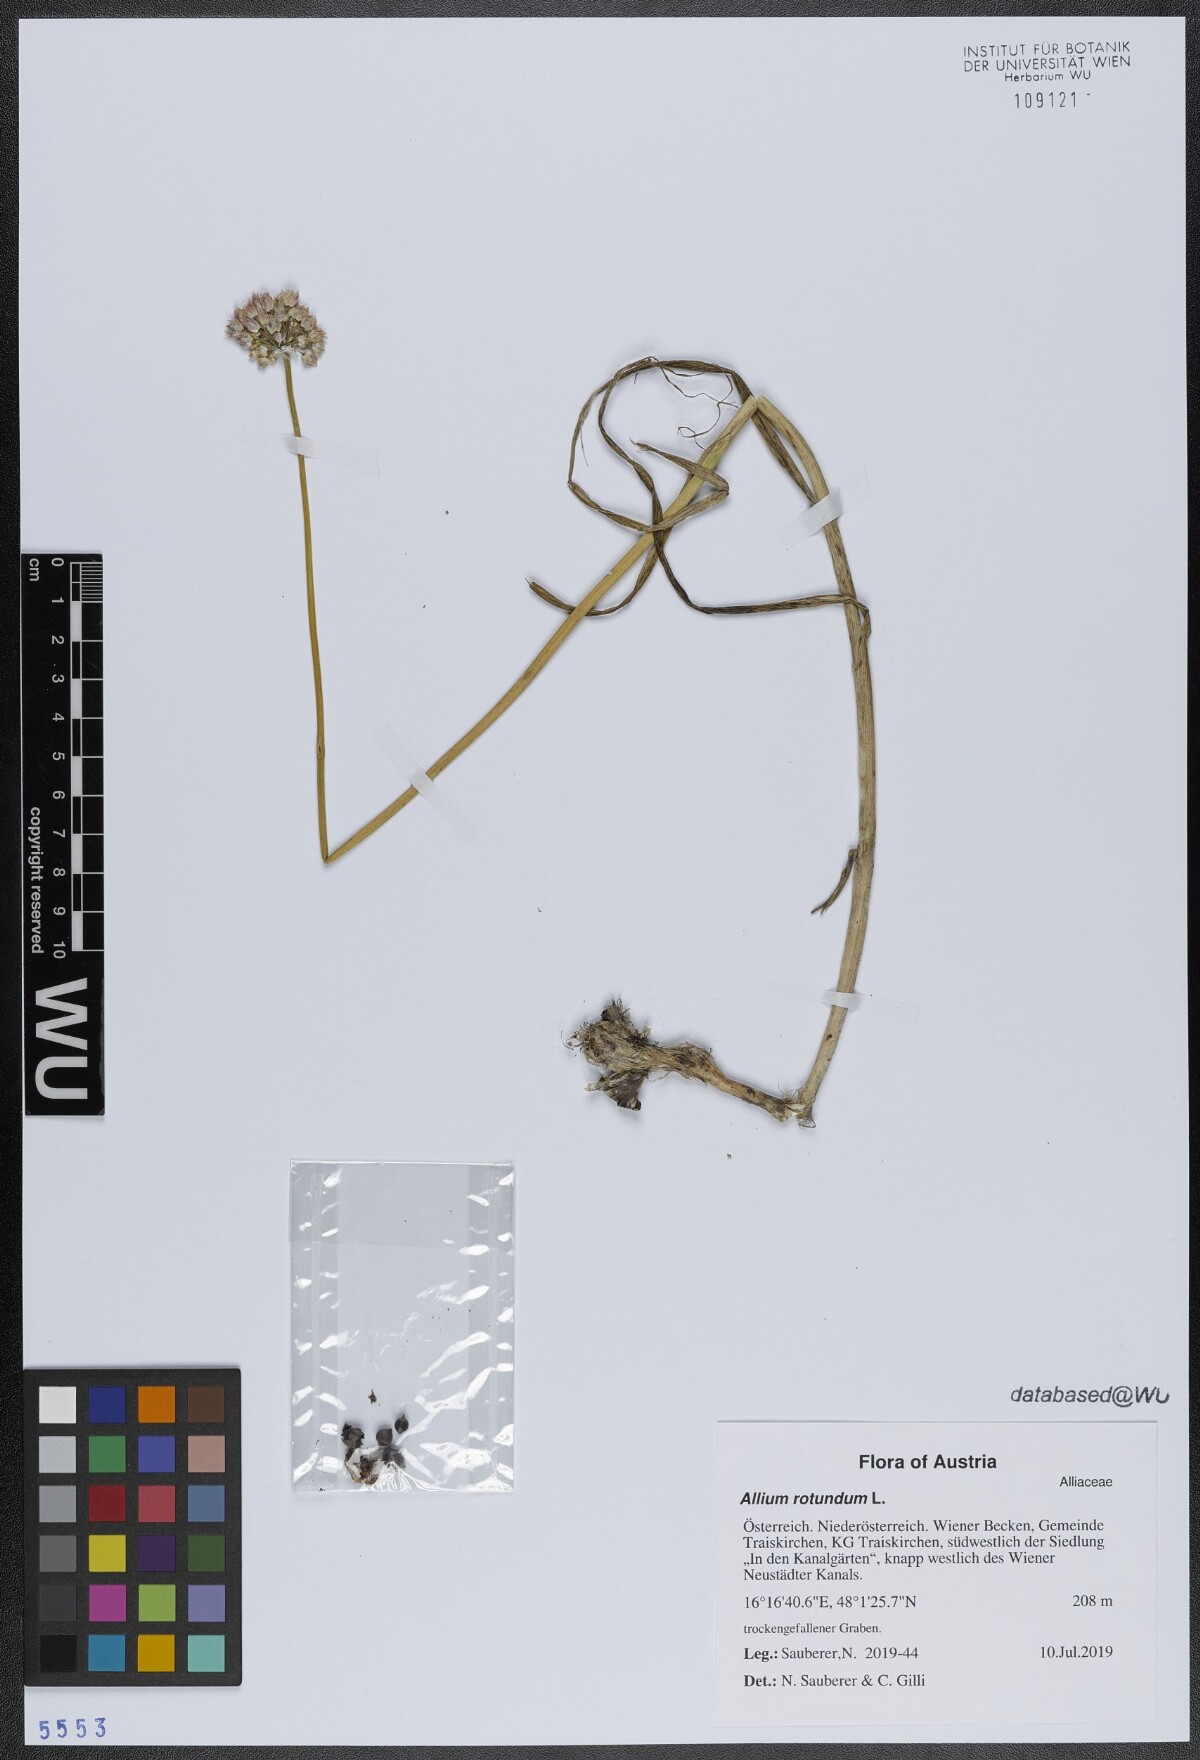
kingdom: Plantae
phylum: Tracheophyta
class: Liliopsida
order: Asparagales
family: Amaryllidaceae
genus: Allium
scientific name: Allium rotundum
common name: Sand leek
